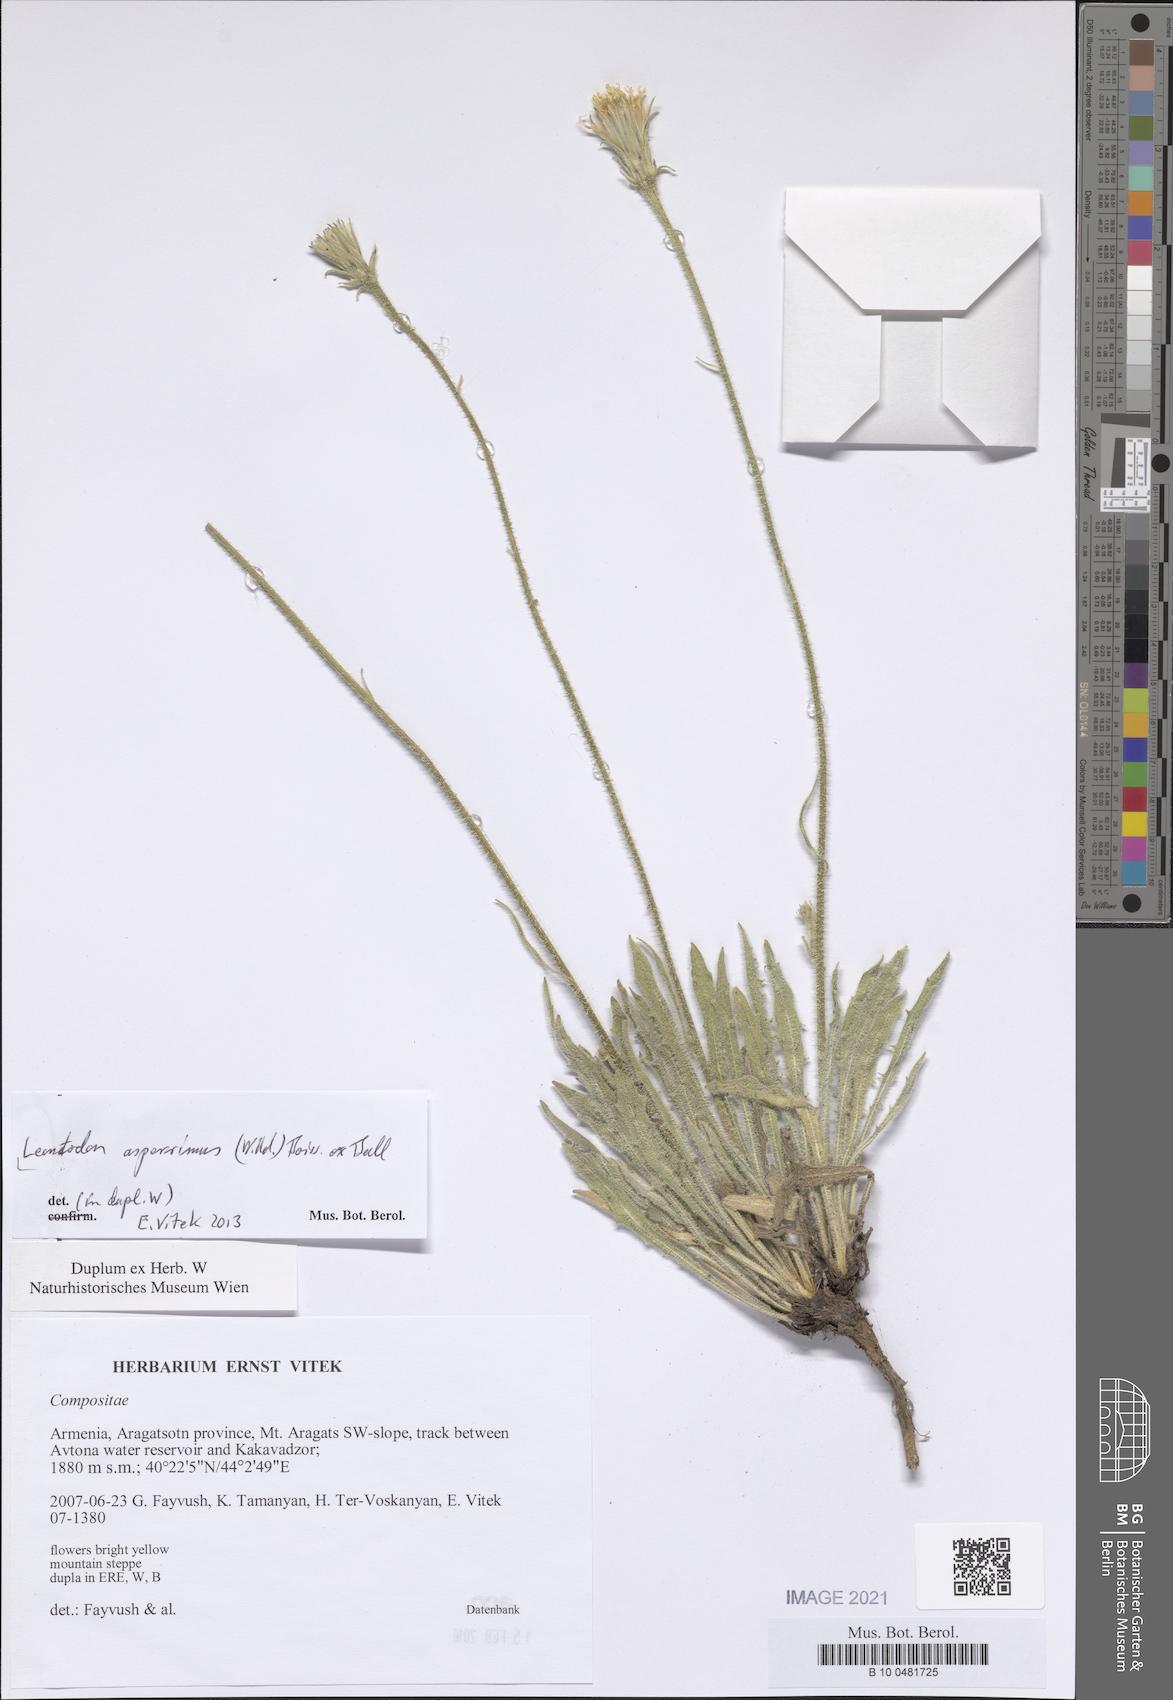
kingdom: Plantae
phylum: Tracheophyta
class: Magnoliopsida
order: Asterales
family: Asteraceae
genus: Leontodon
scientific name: Leontodon asperrimus
